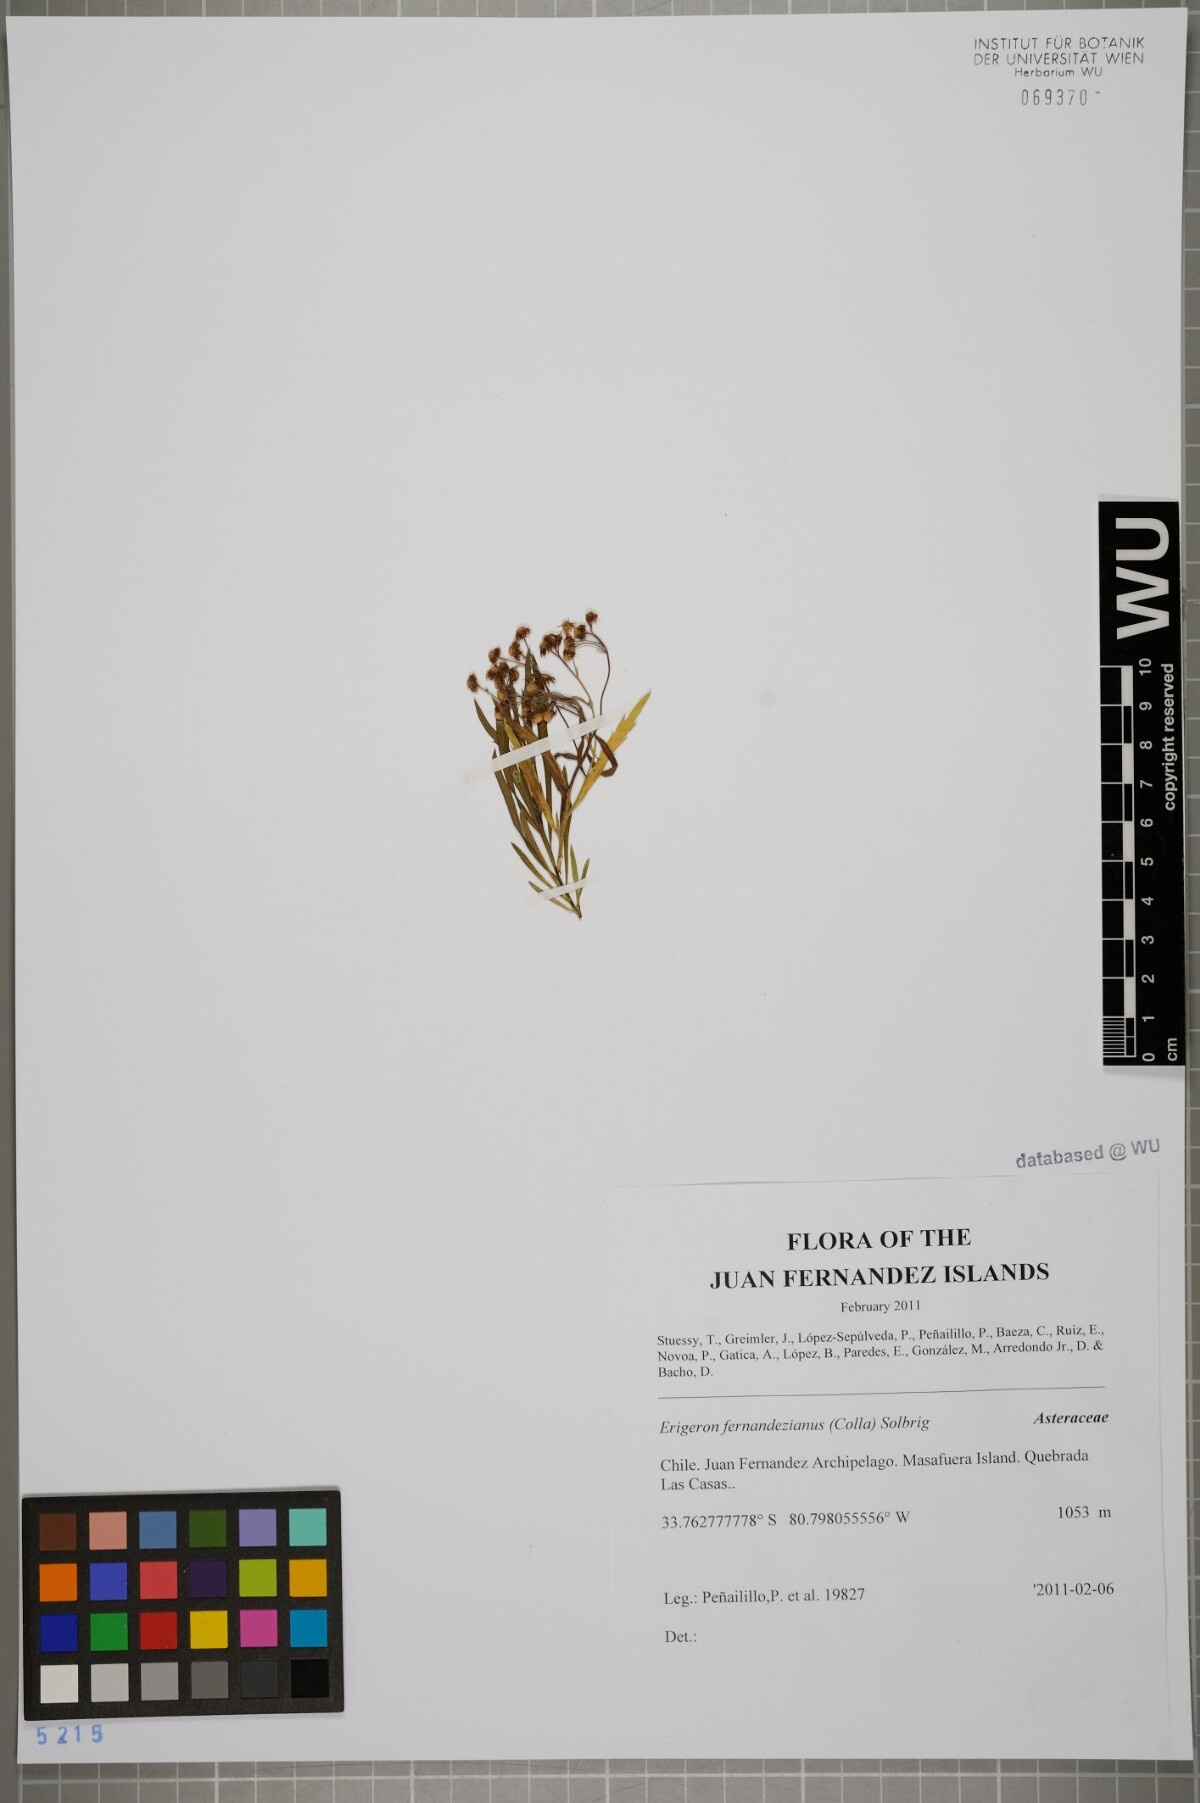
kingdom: Plantae
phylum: Tracheophyta
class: Magnoliopsida
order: Asterales
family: Asteraceae
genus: Erigeron
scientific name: Erigeron fernandezianus
